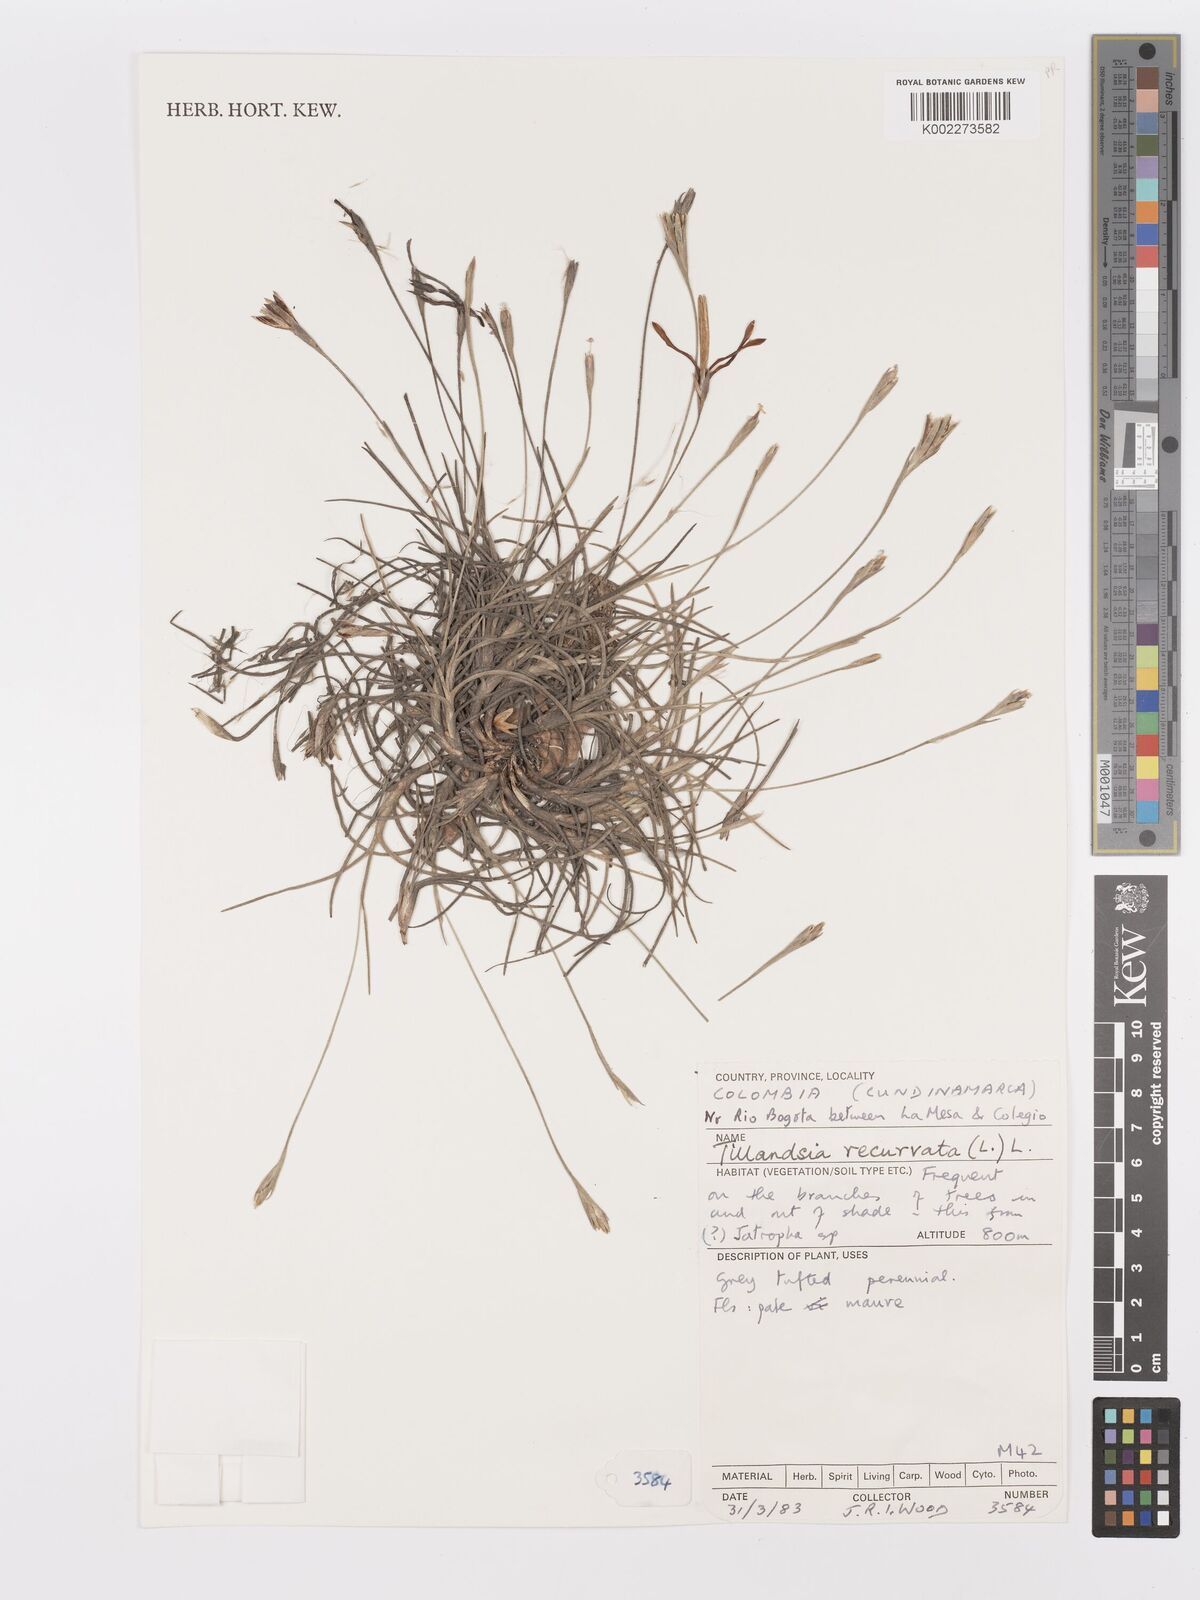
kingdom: Plantae
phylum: Tracheophyta
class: Liliopsida
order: Poales
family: Bromeliaceae
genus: Tillandsia
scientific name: Tillandsia recurvata
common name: Small ballmoss
